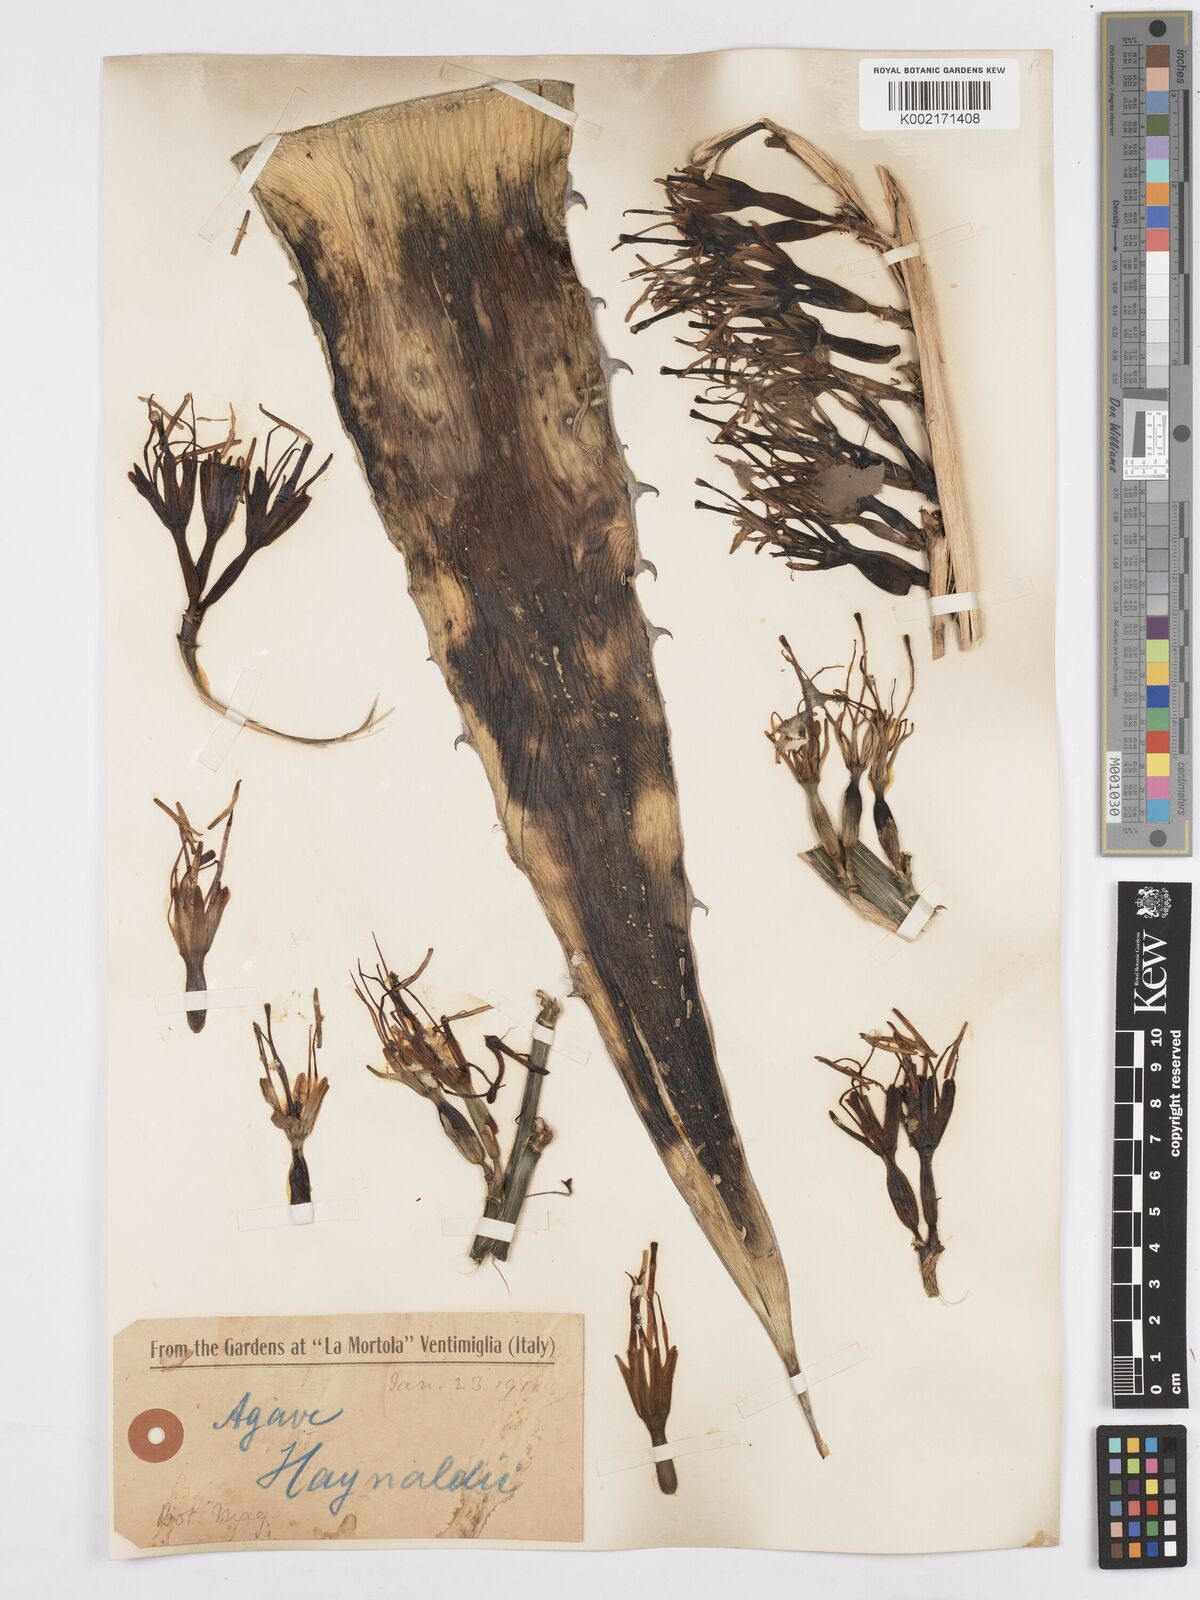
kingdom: Plantae
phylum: Tracheophyta
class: Liliopsida
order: Asparagales
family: Asparagaceae
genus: Agave
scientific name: Agave utahensis
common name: Utah agave
